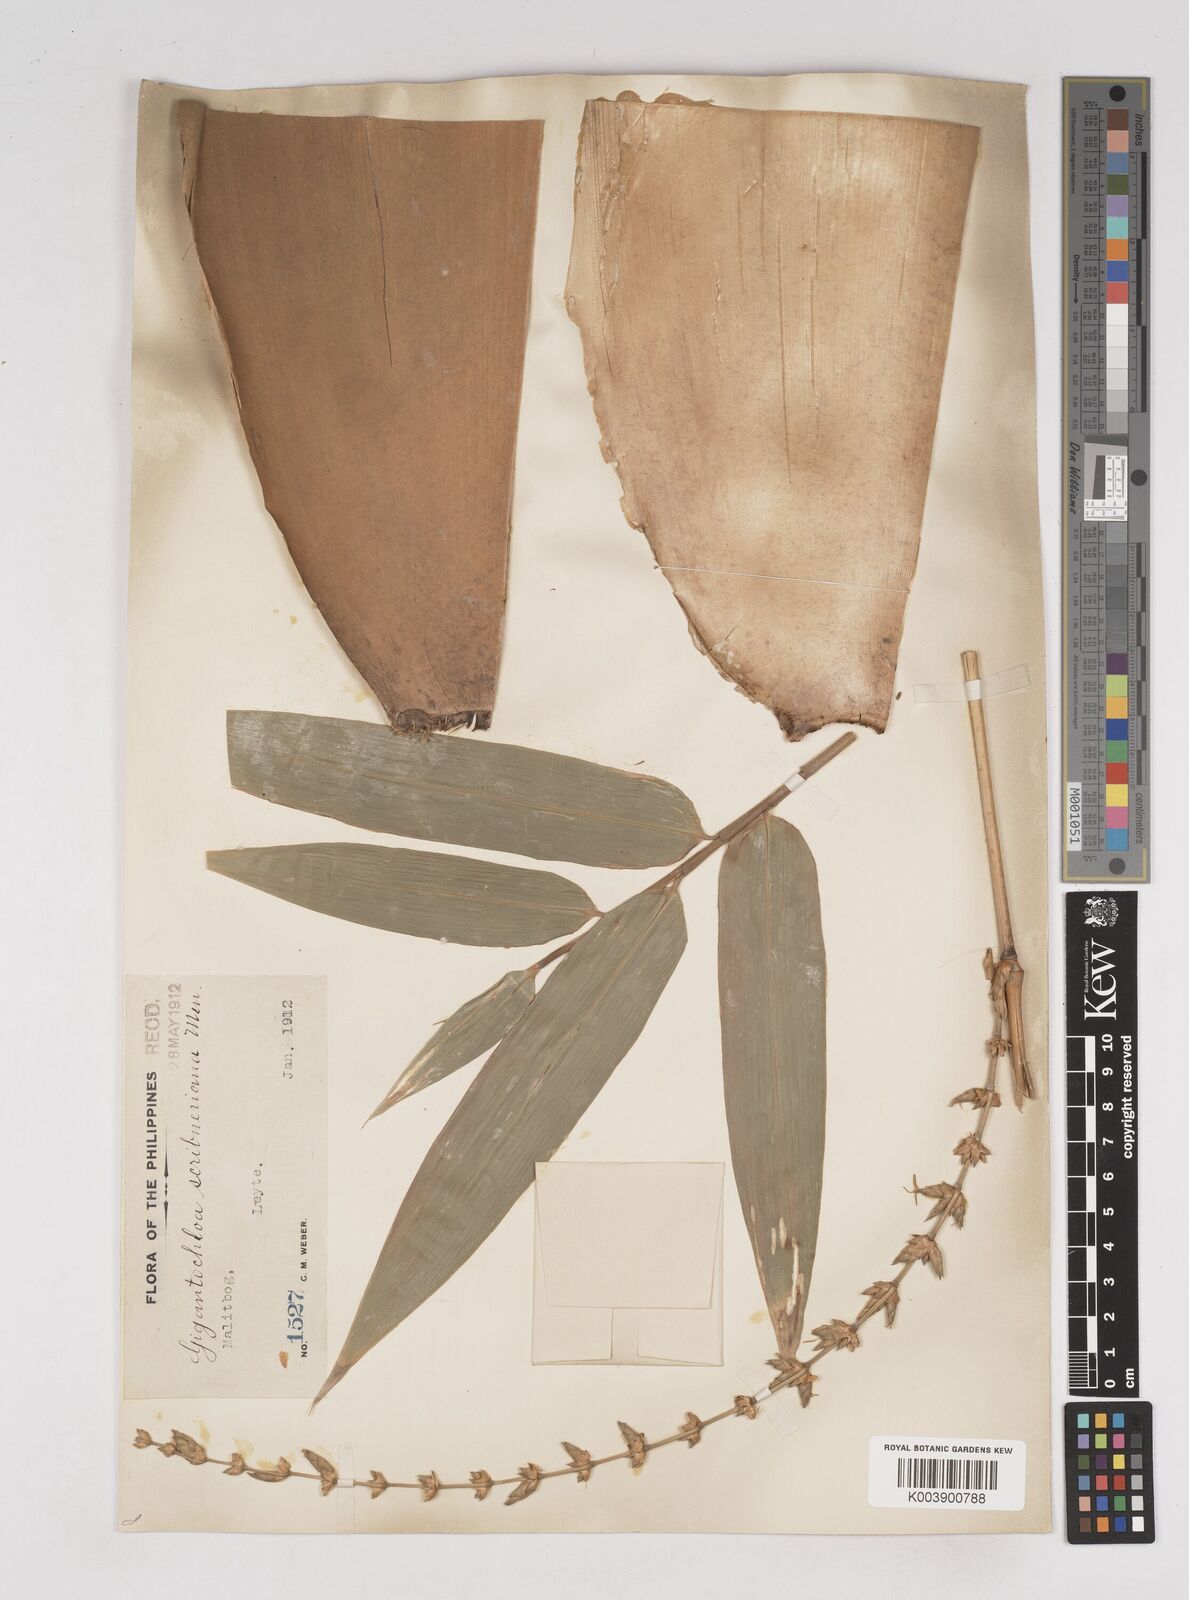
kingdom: Plantae
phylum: Tracheophyta
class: Liliopsida
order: Poales
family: Poaceae
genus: Gigantochloa
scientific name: Gigantochloa
